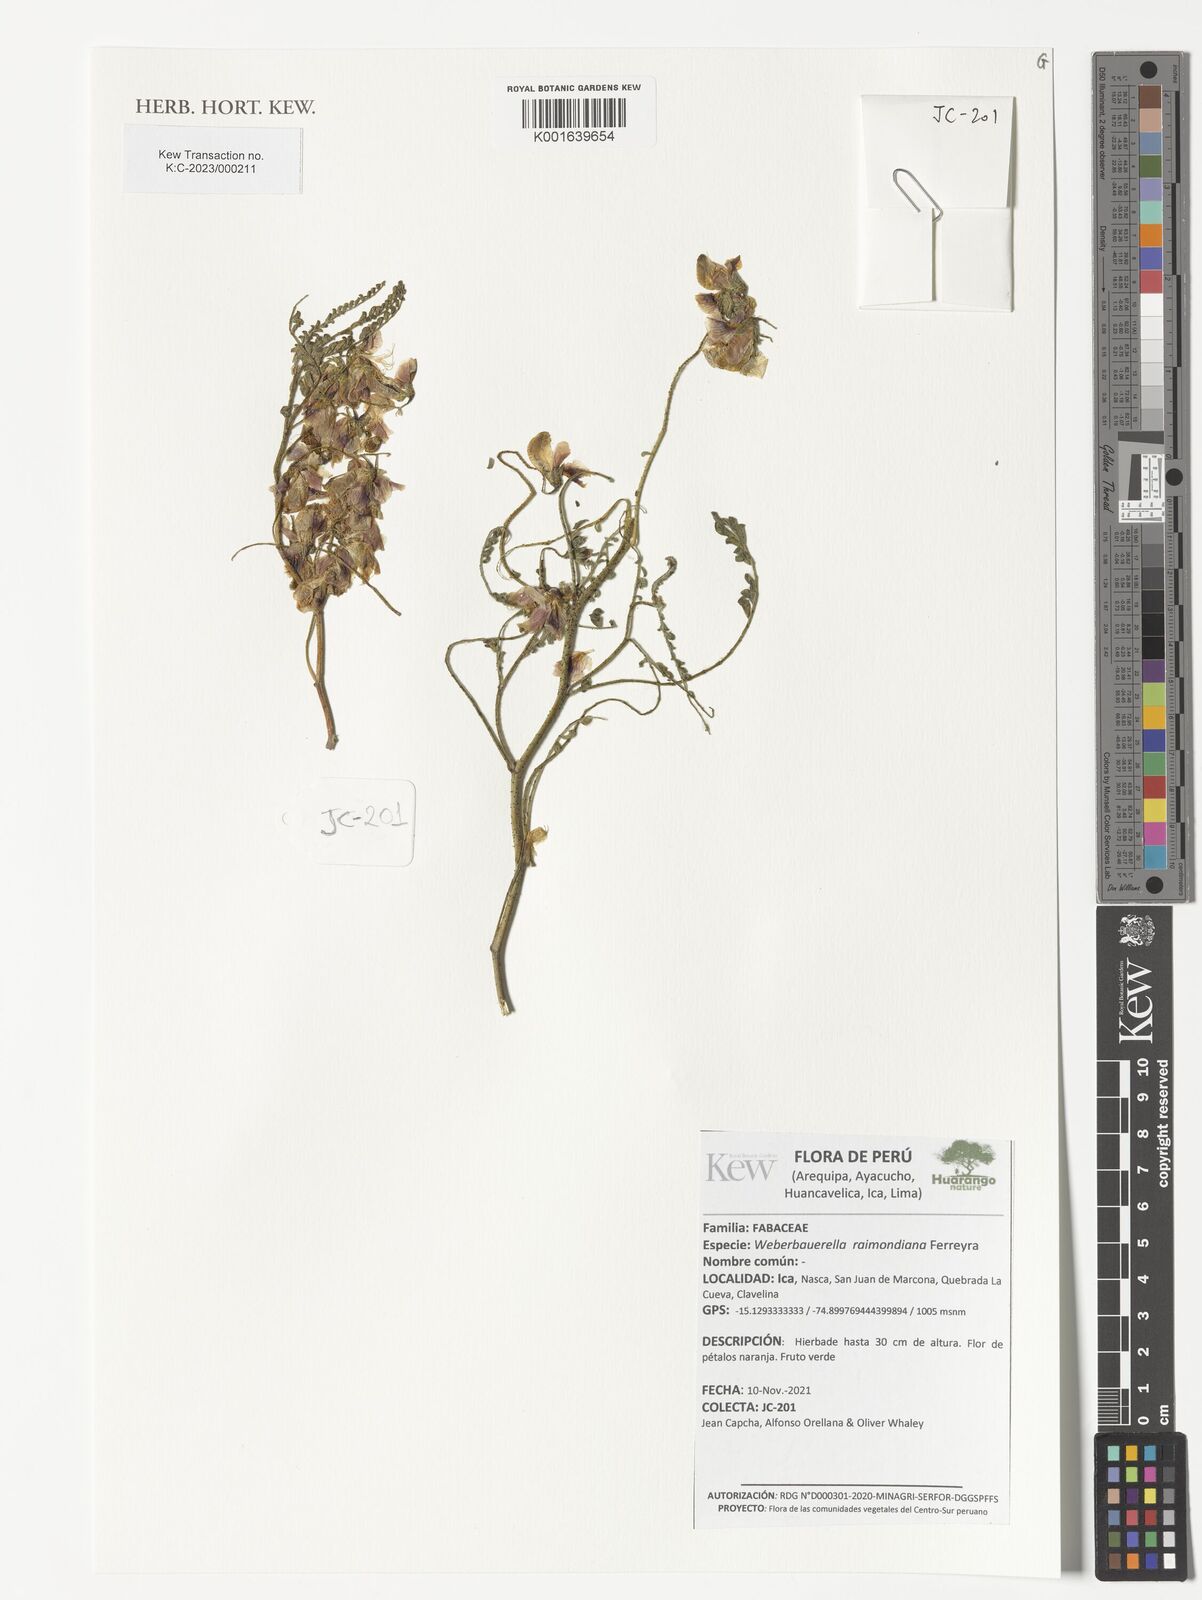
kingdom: Plantae
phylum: Tracheophyta
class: Magnoliopsida
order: Fabales
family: Fabaceae
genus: Weberbauerella
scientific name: Weberbauerella raimondiana
